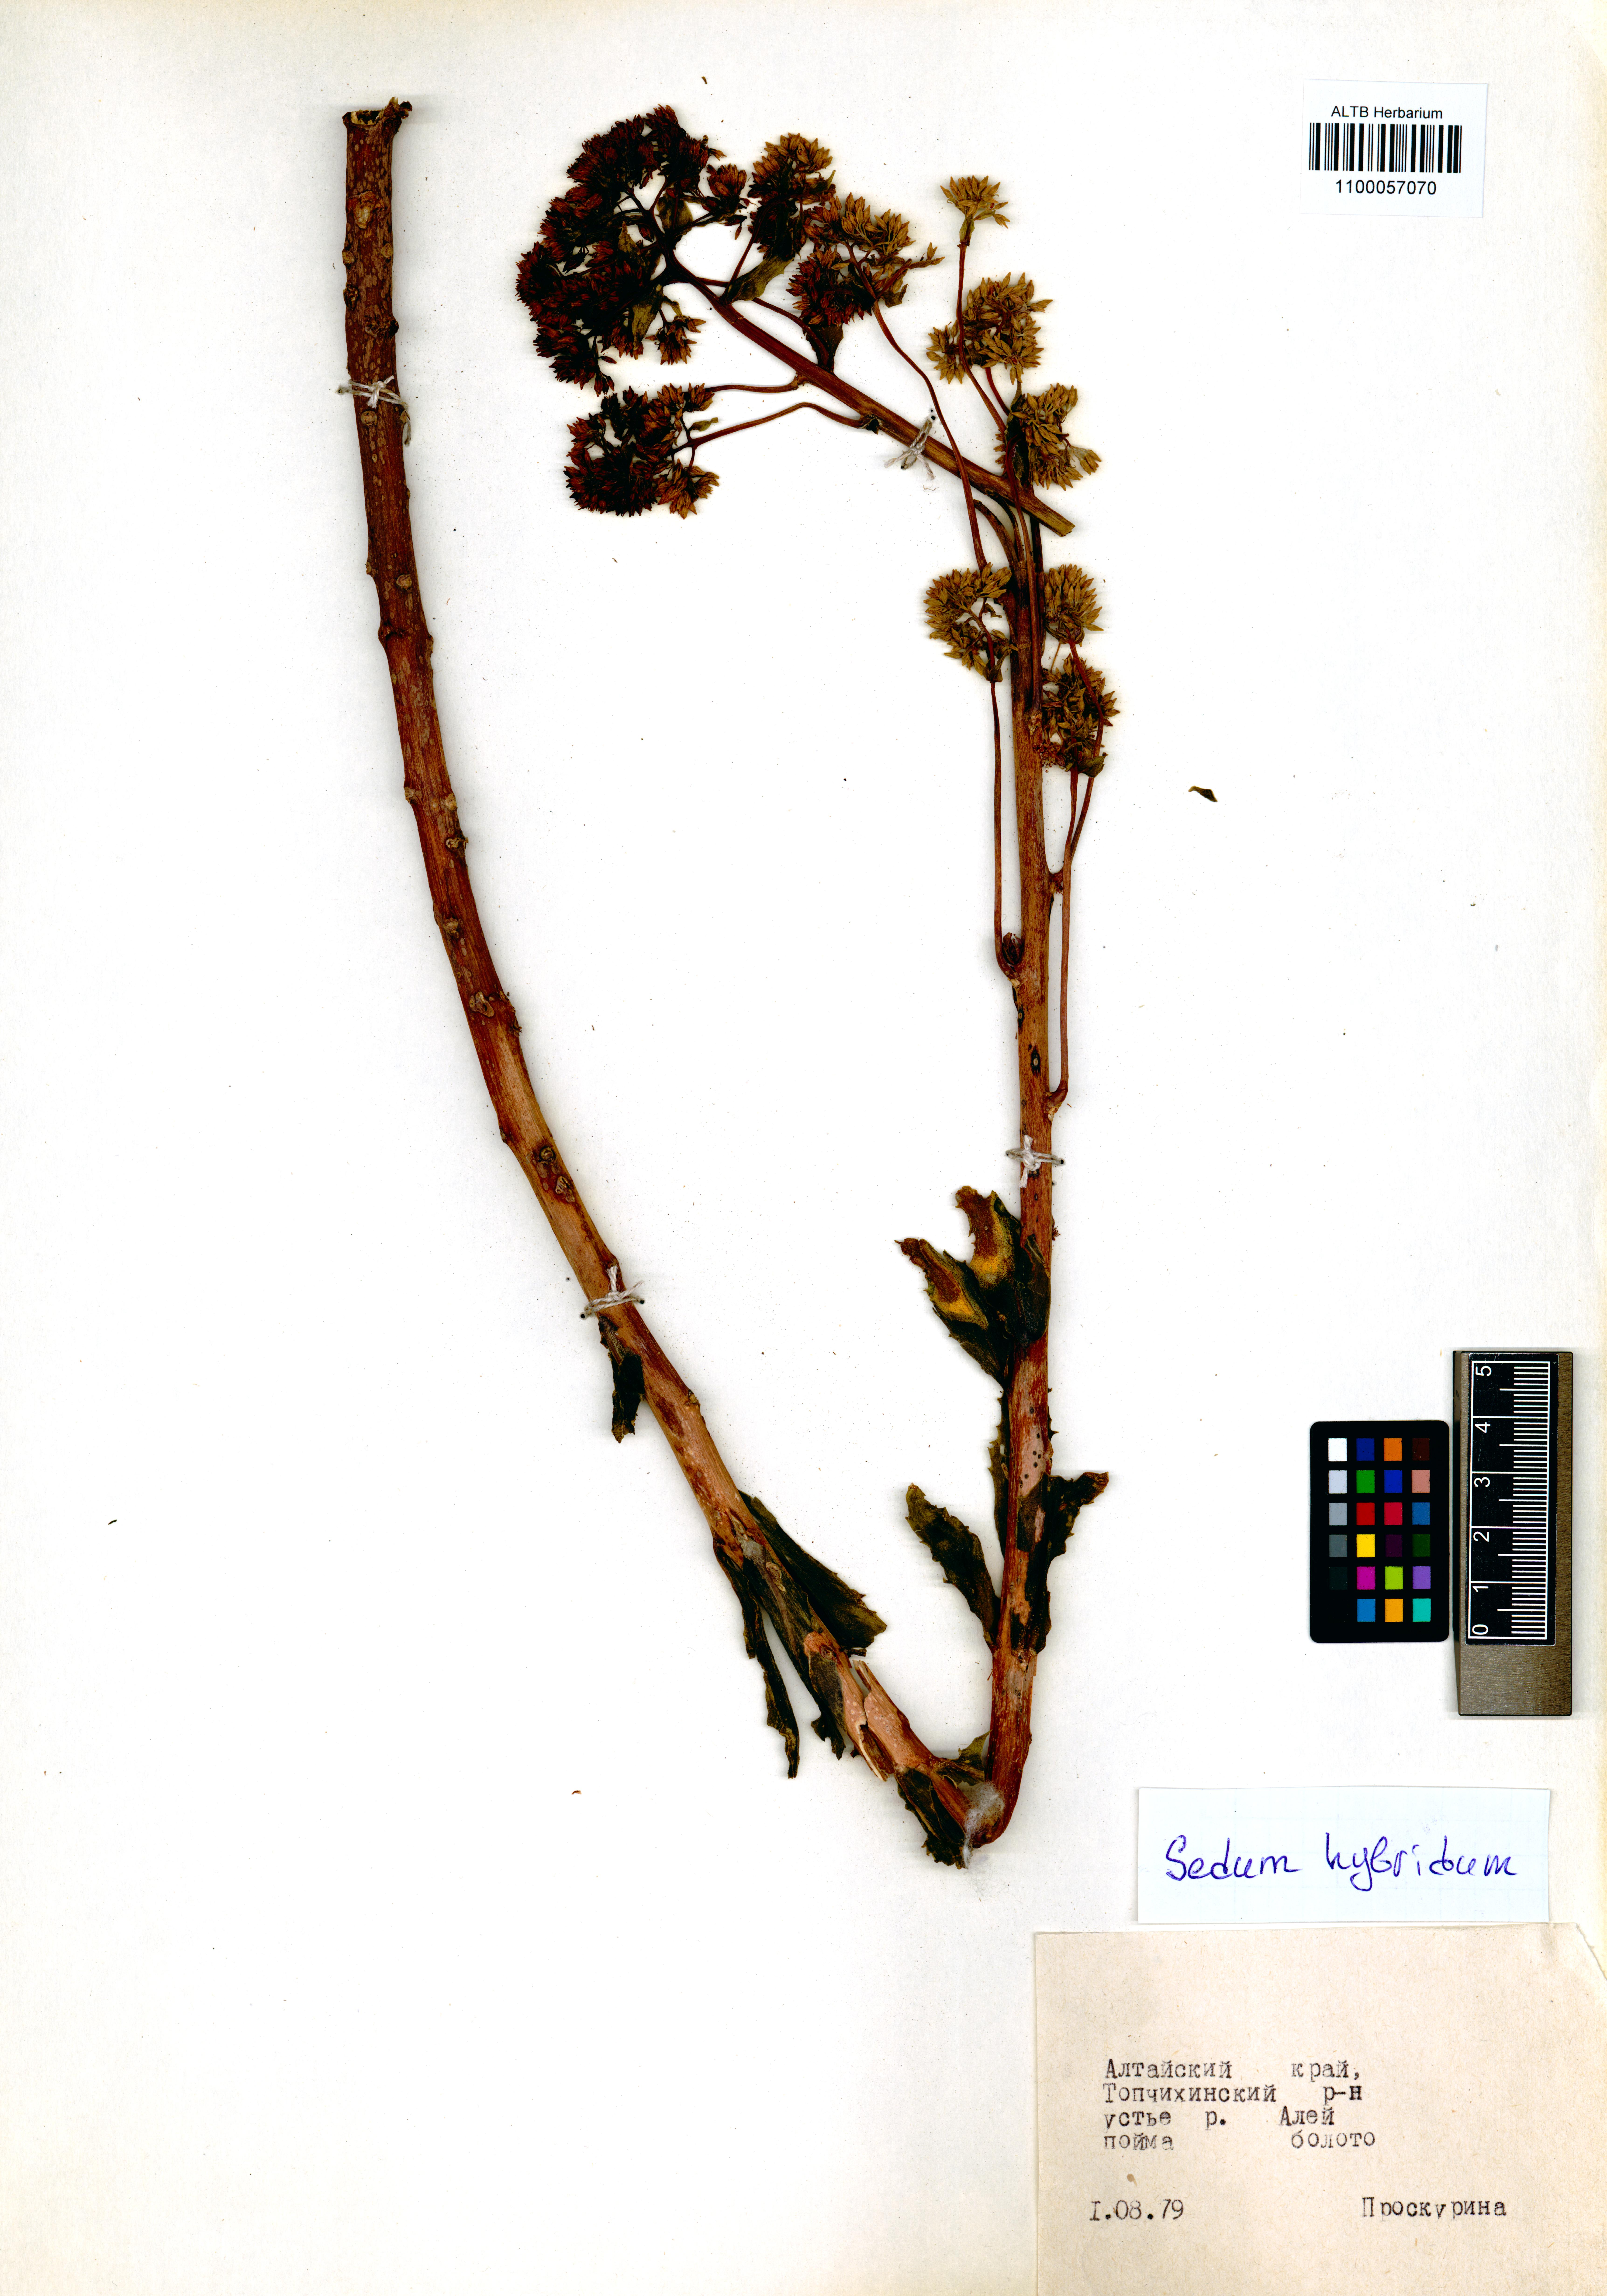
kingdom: Plantae
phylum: Tracheophyta
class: Magnoliopsida
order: Saxifragales
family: Crassulaceae
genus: Phedimus
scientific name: Phedimus hybridus
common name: Hybrid stonecrop
